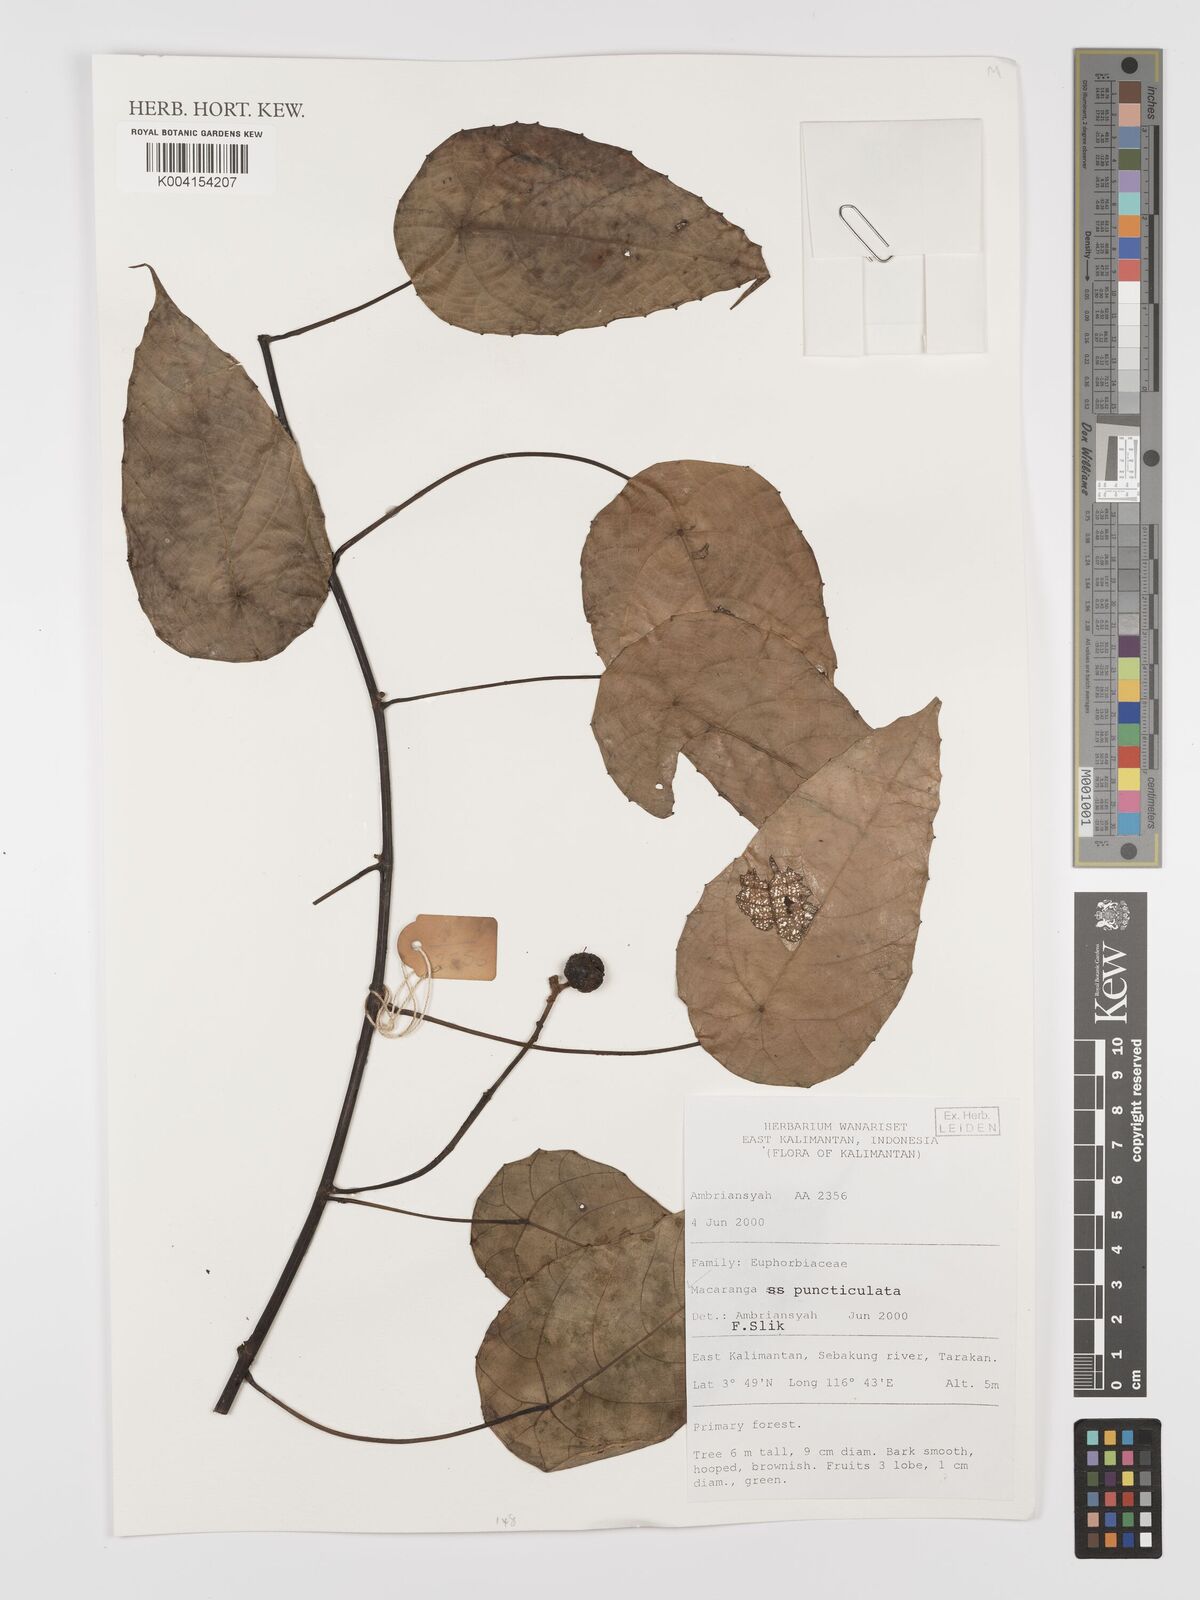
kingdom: Plantae
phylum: Tracheophyta
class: Magnoliopsida
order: Malpighiales
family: Euphorbiaceae
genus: Macaranga
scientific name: Macaranga puncticulata
